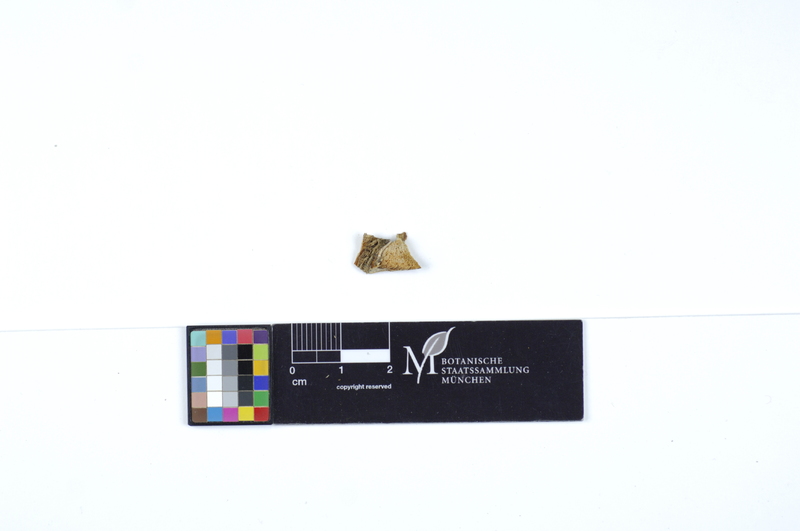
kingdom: Plantae
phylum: Tracheophyta
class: Pinopsida
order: Pinales
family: Pinaceae
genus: Picea
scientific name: Picea
